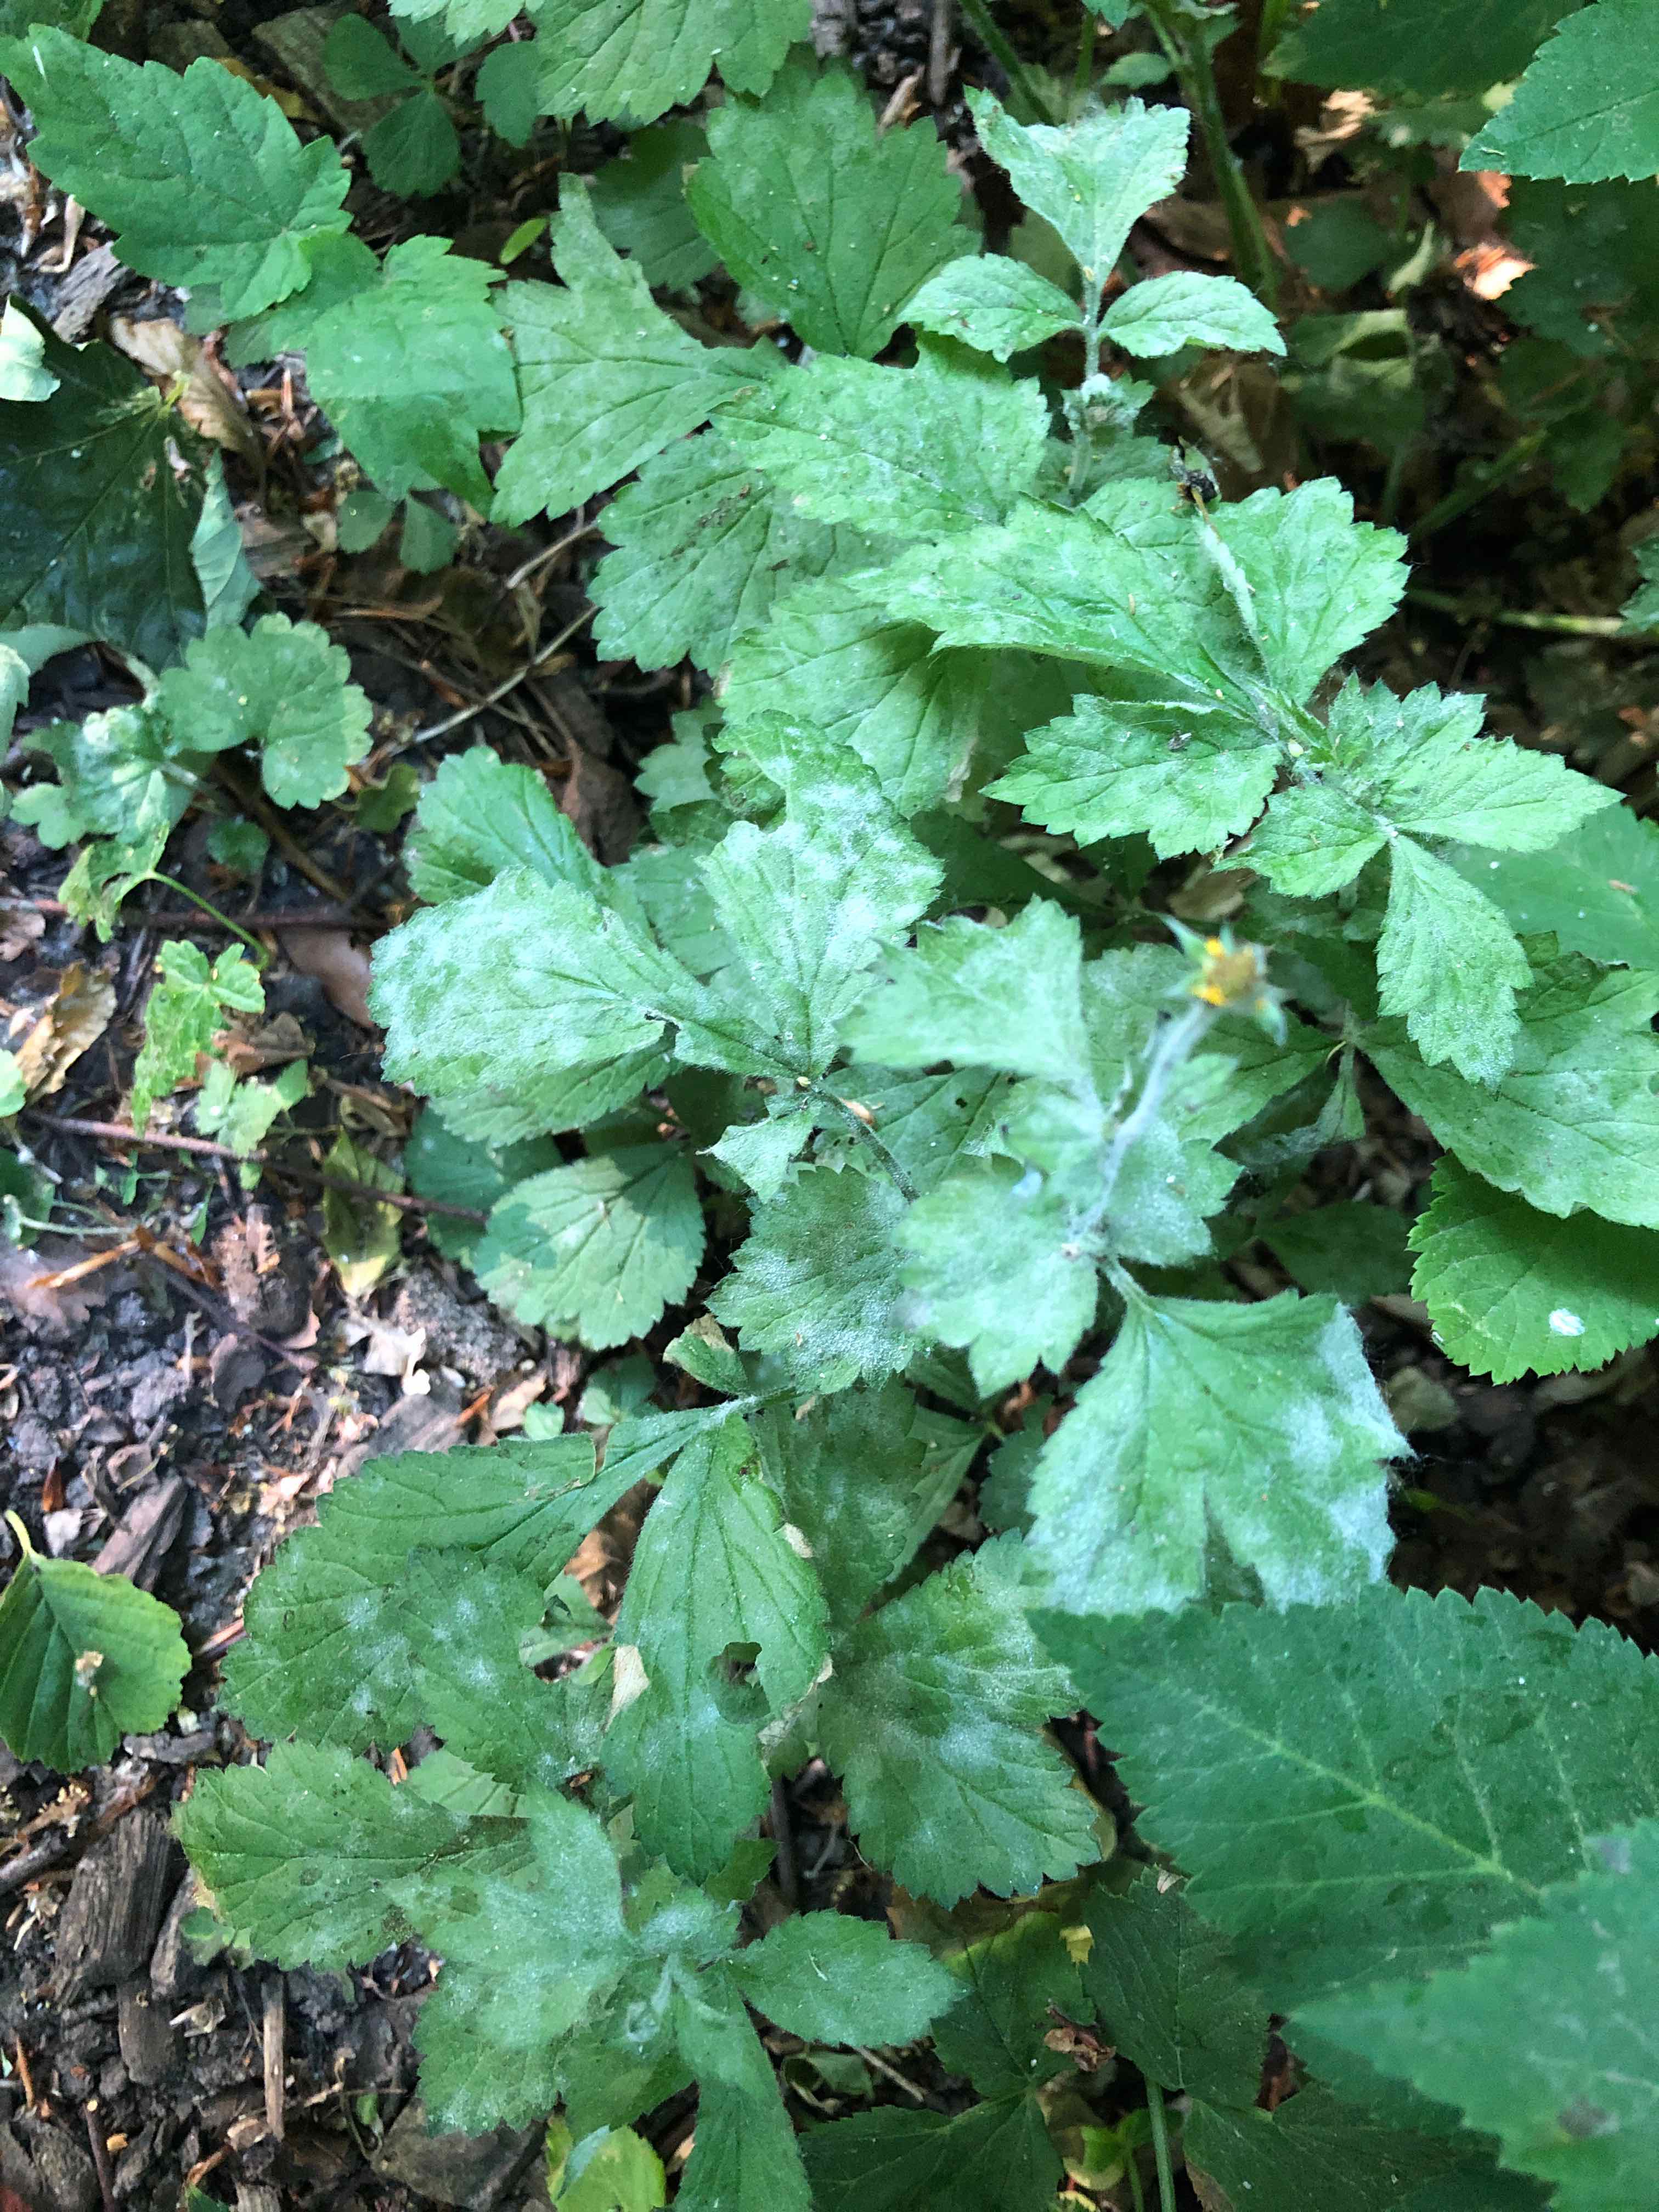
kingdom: Fungi
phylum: Ascomycota
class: Leotiomycetes
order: Helotiales
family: Erysiphaceae
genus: Podosphaera
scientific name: Podosphaera aphanis
